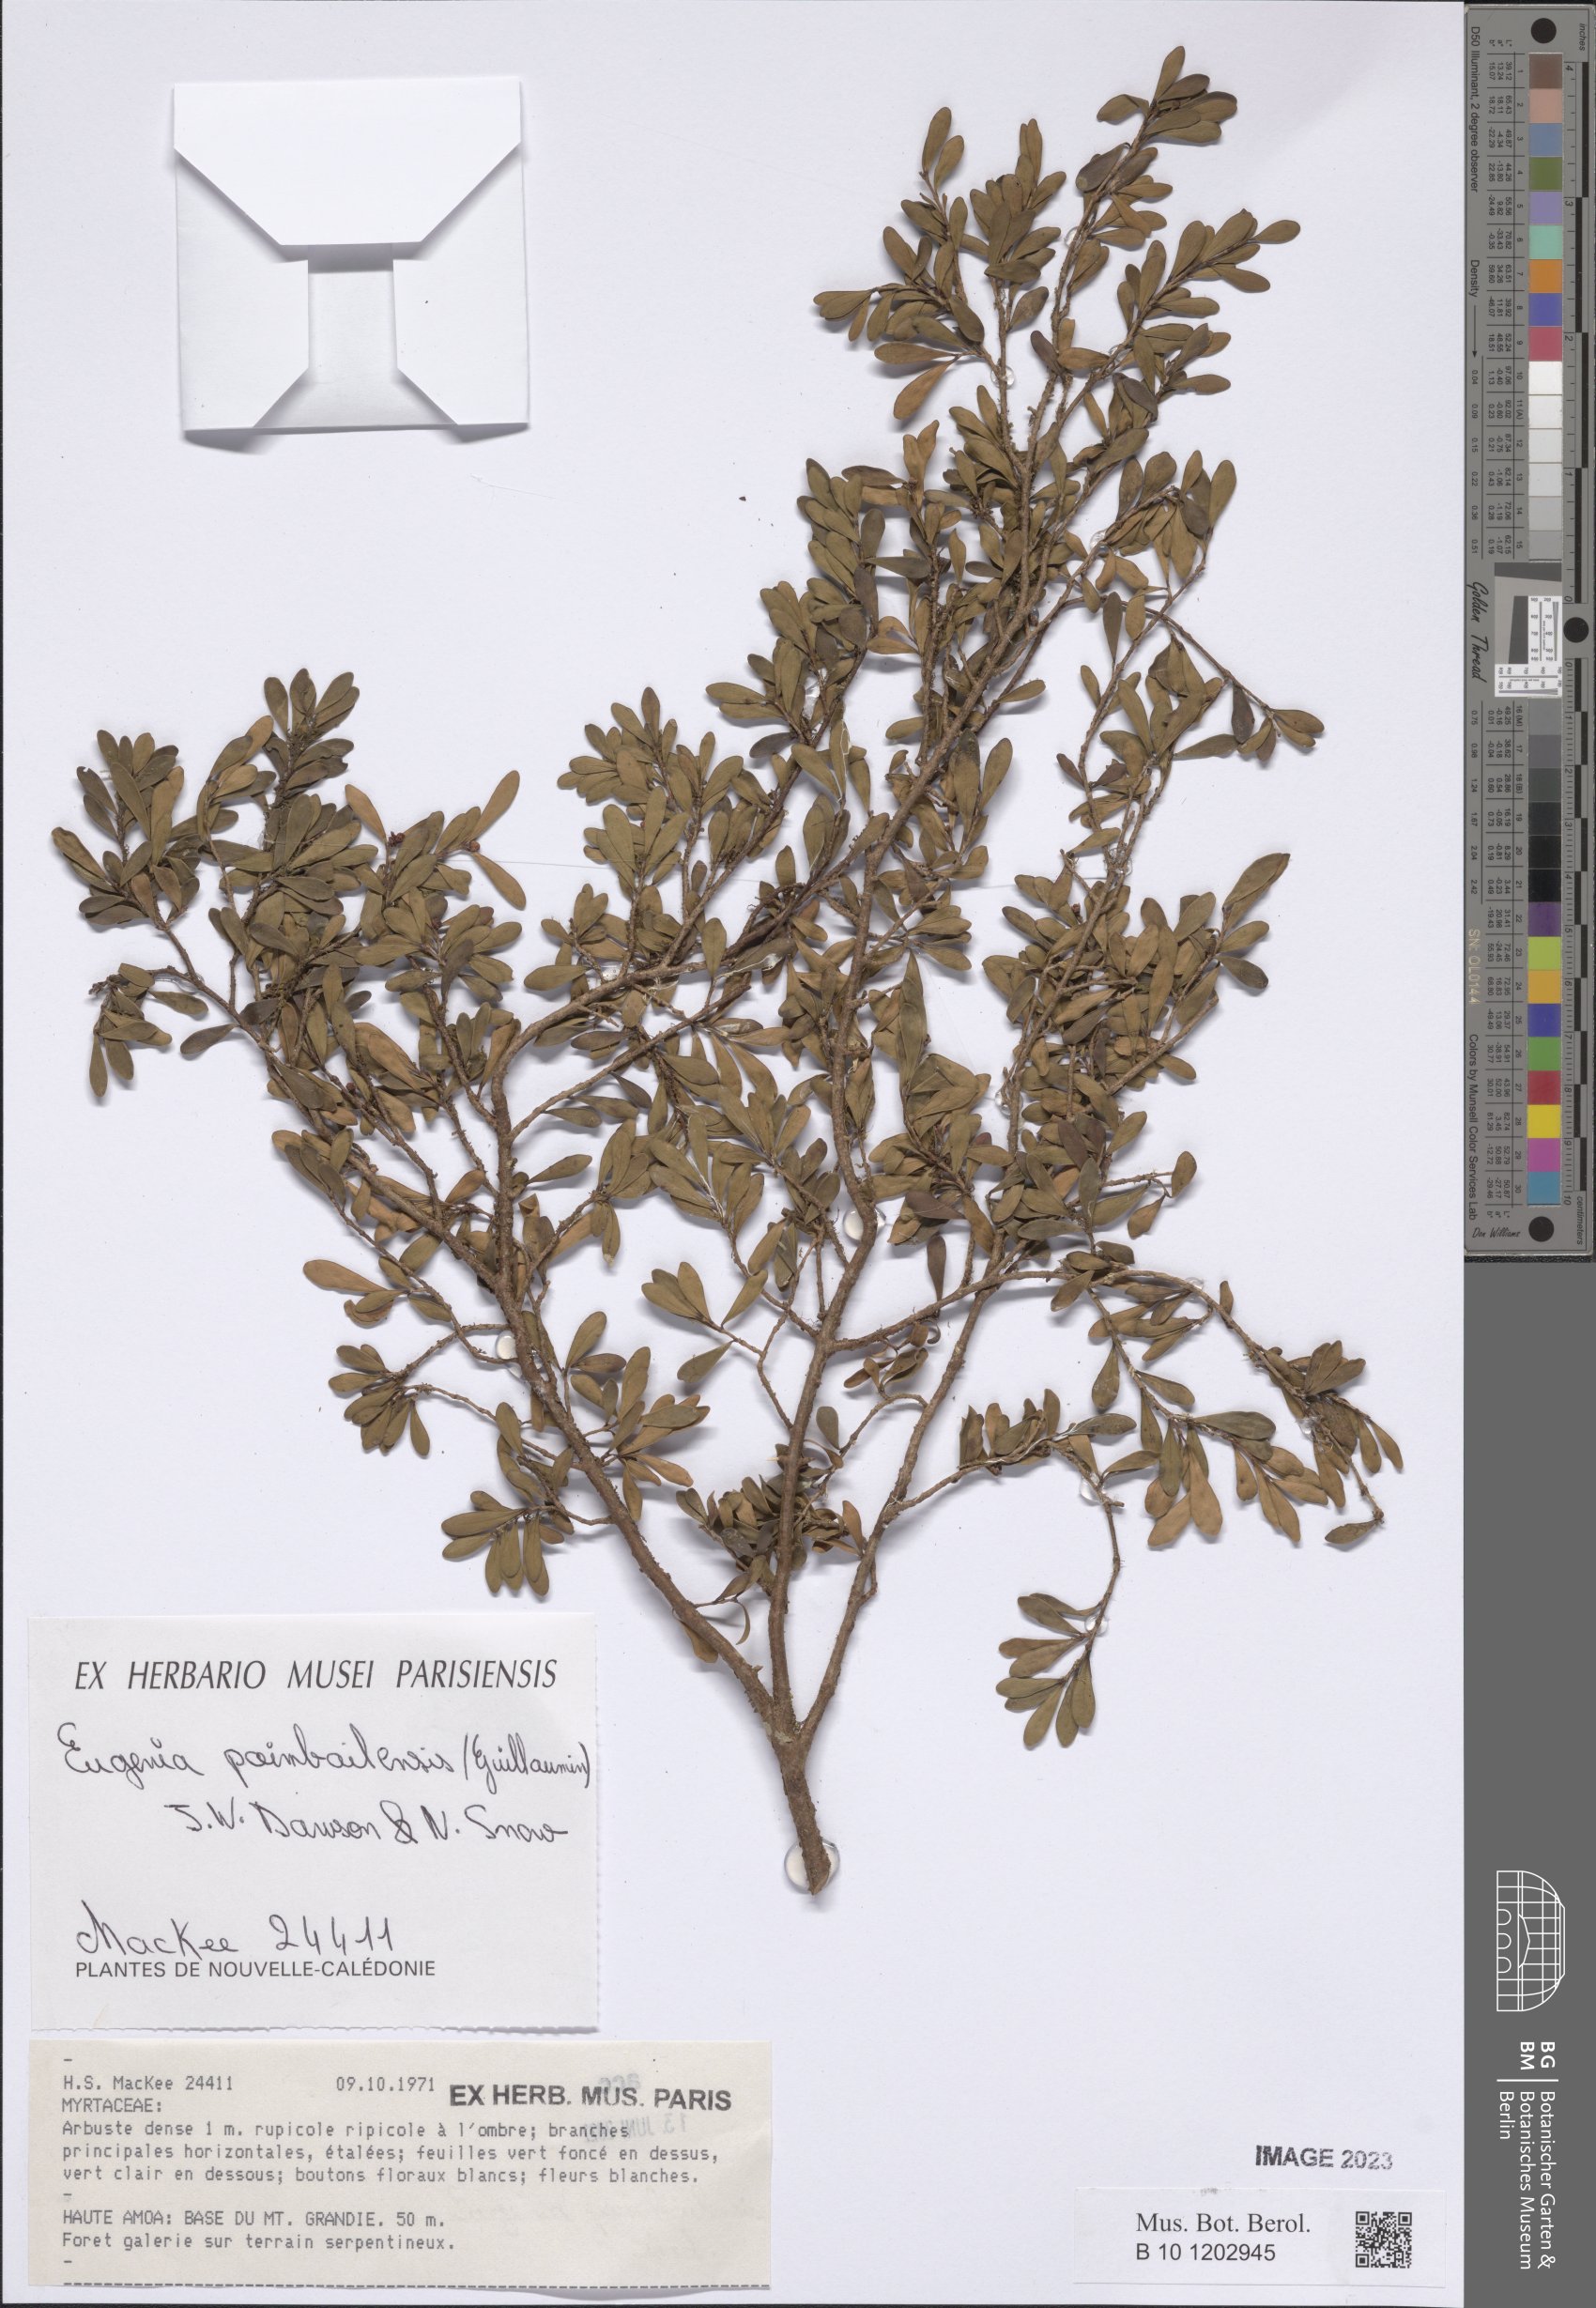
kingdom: Plantae
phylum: Tracheophyta
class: Magnoliopsida
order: Myrtales
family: Myrtaceae
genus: Eugenia
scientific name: Eugenia poimbailensis
